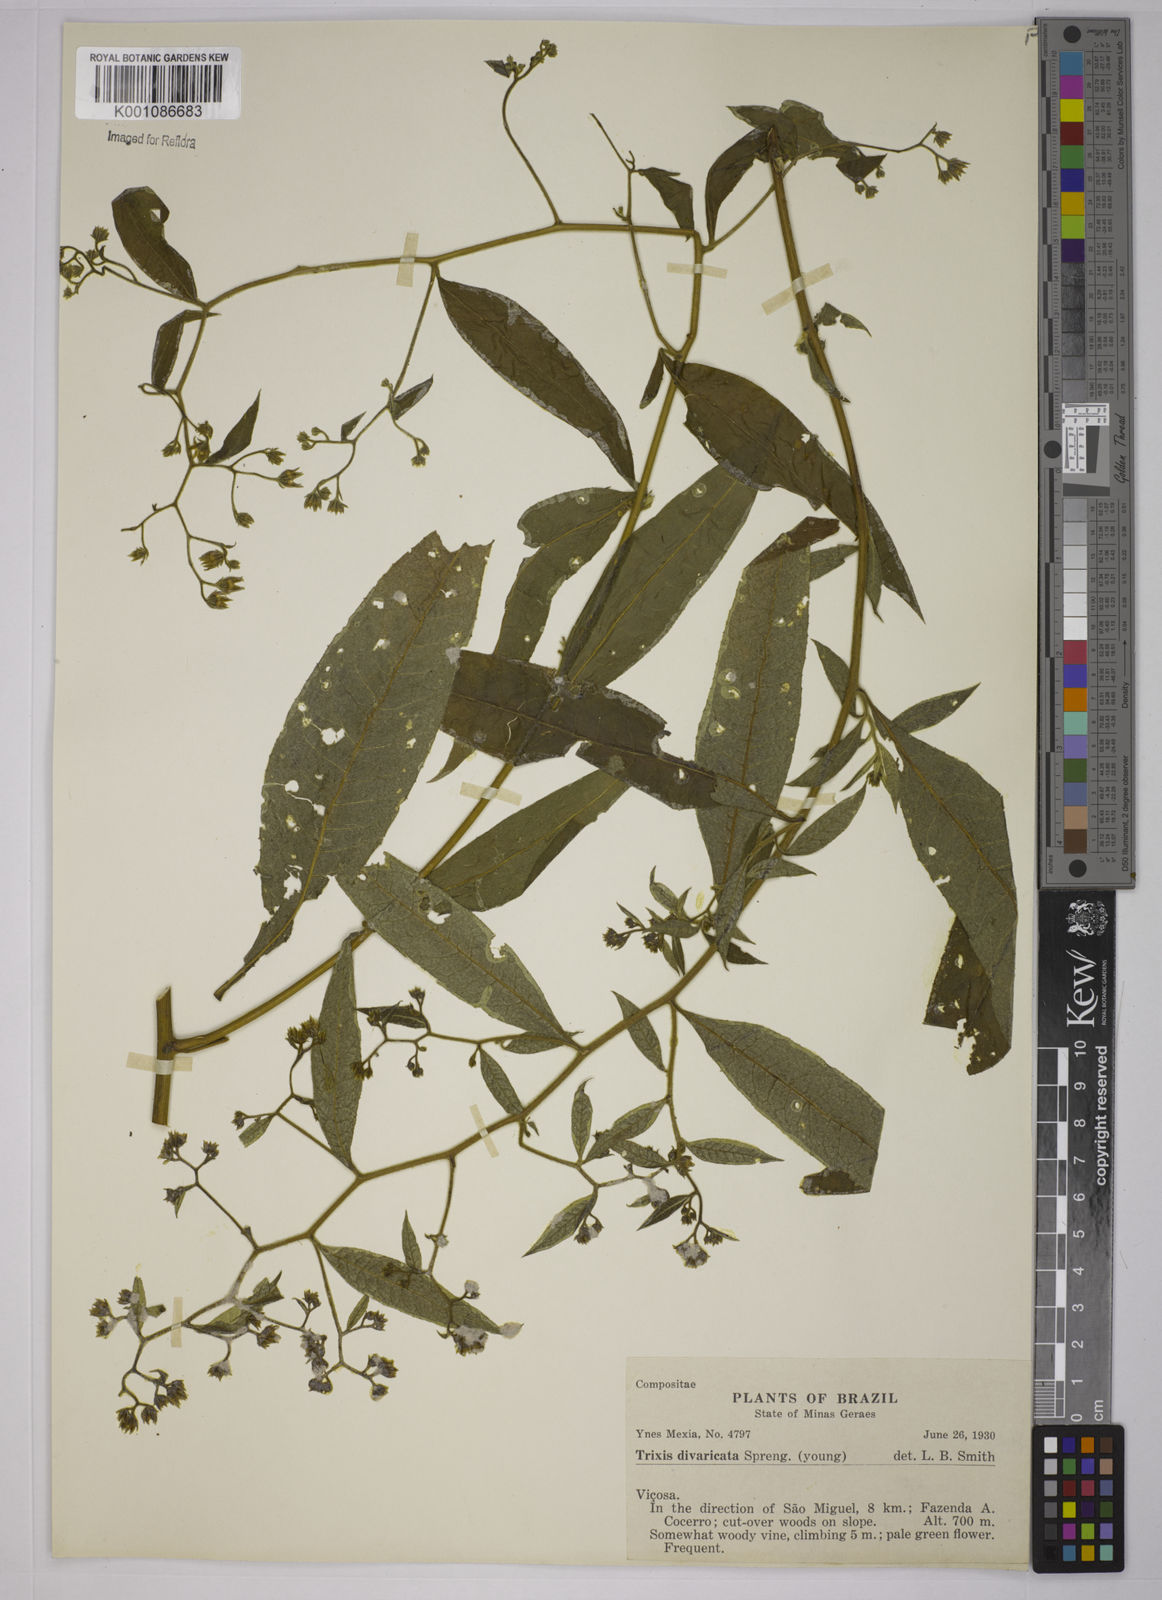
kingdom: Plantae
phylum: Tracheophyta
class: Magnoliopsida
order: Asterales
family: Asteraceae
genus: Trixis
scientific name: Trixis divaricata
